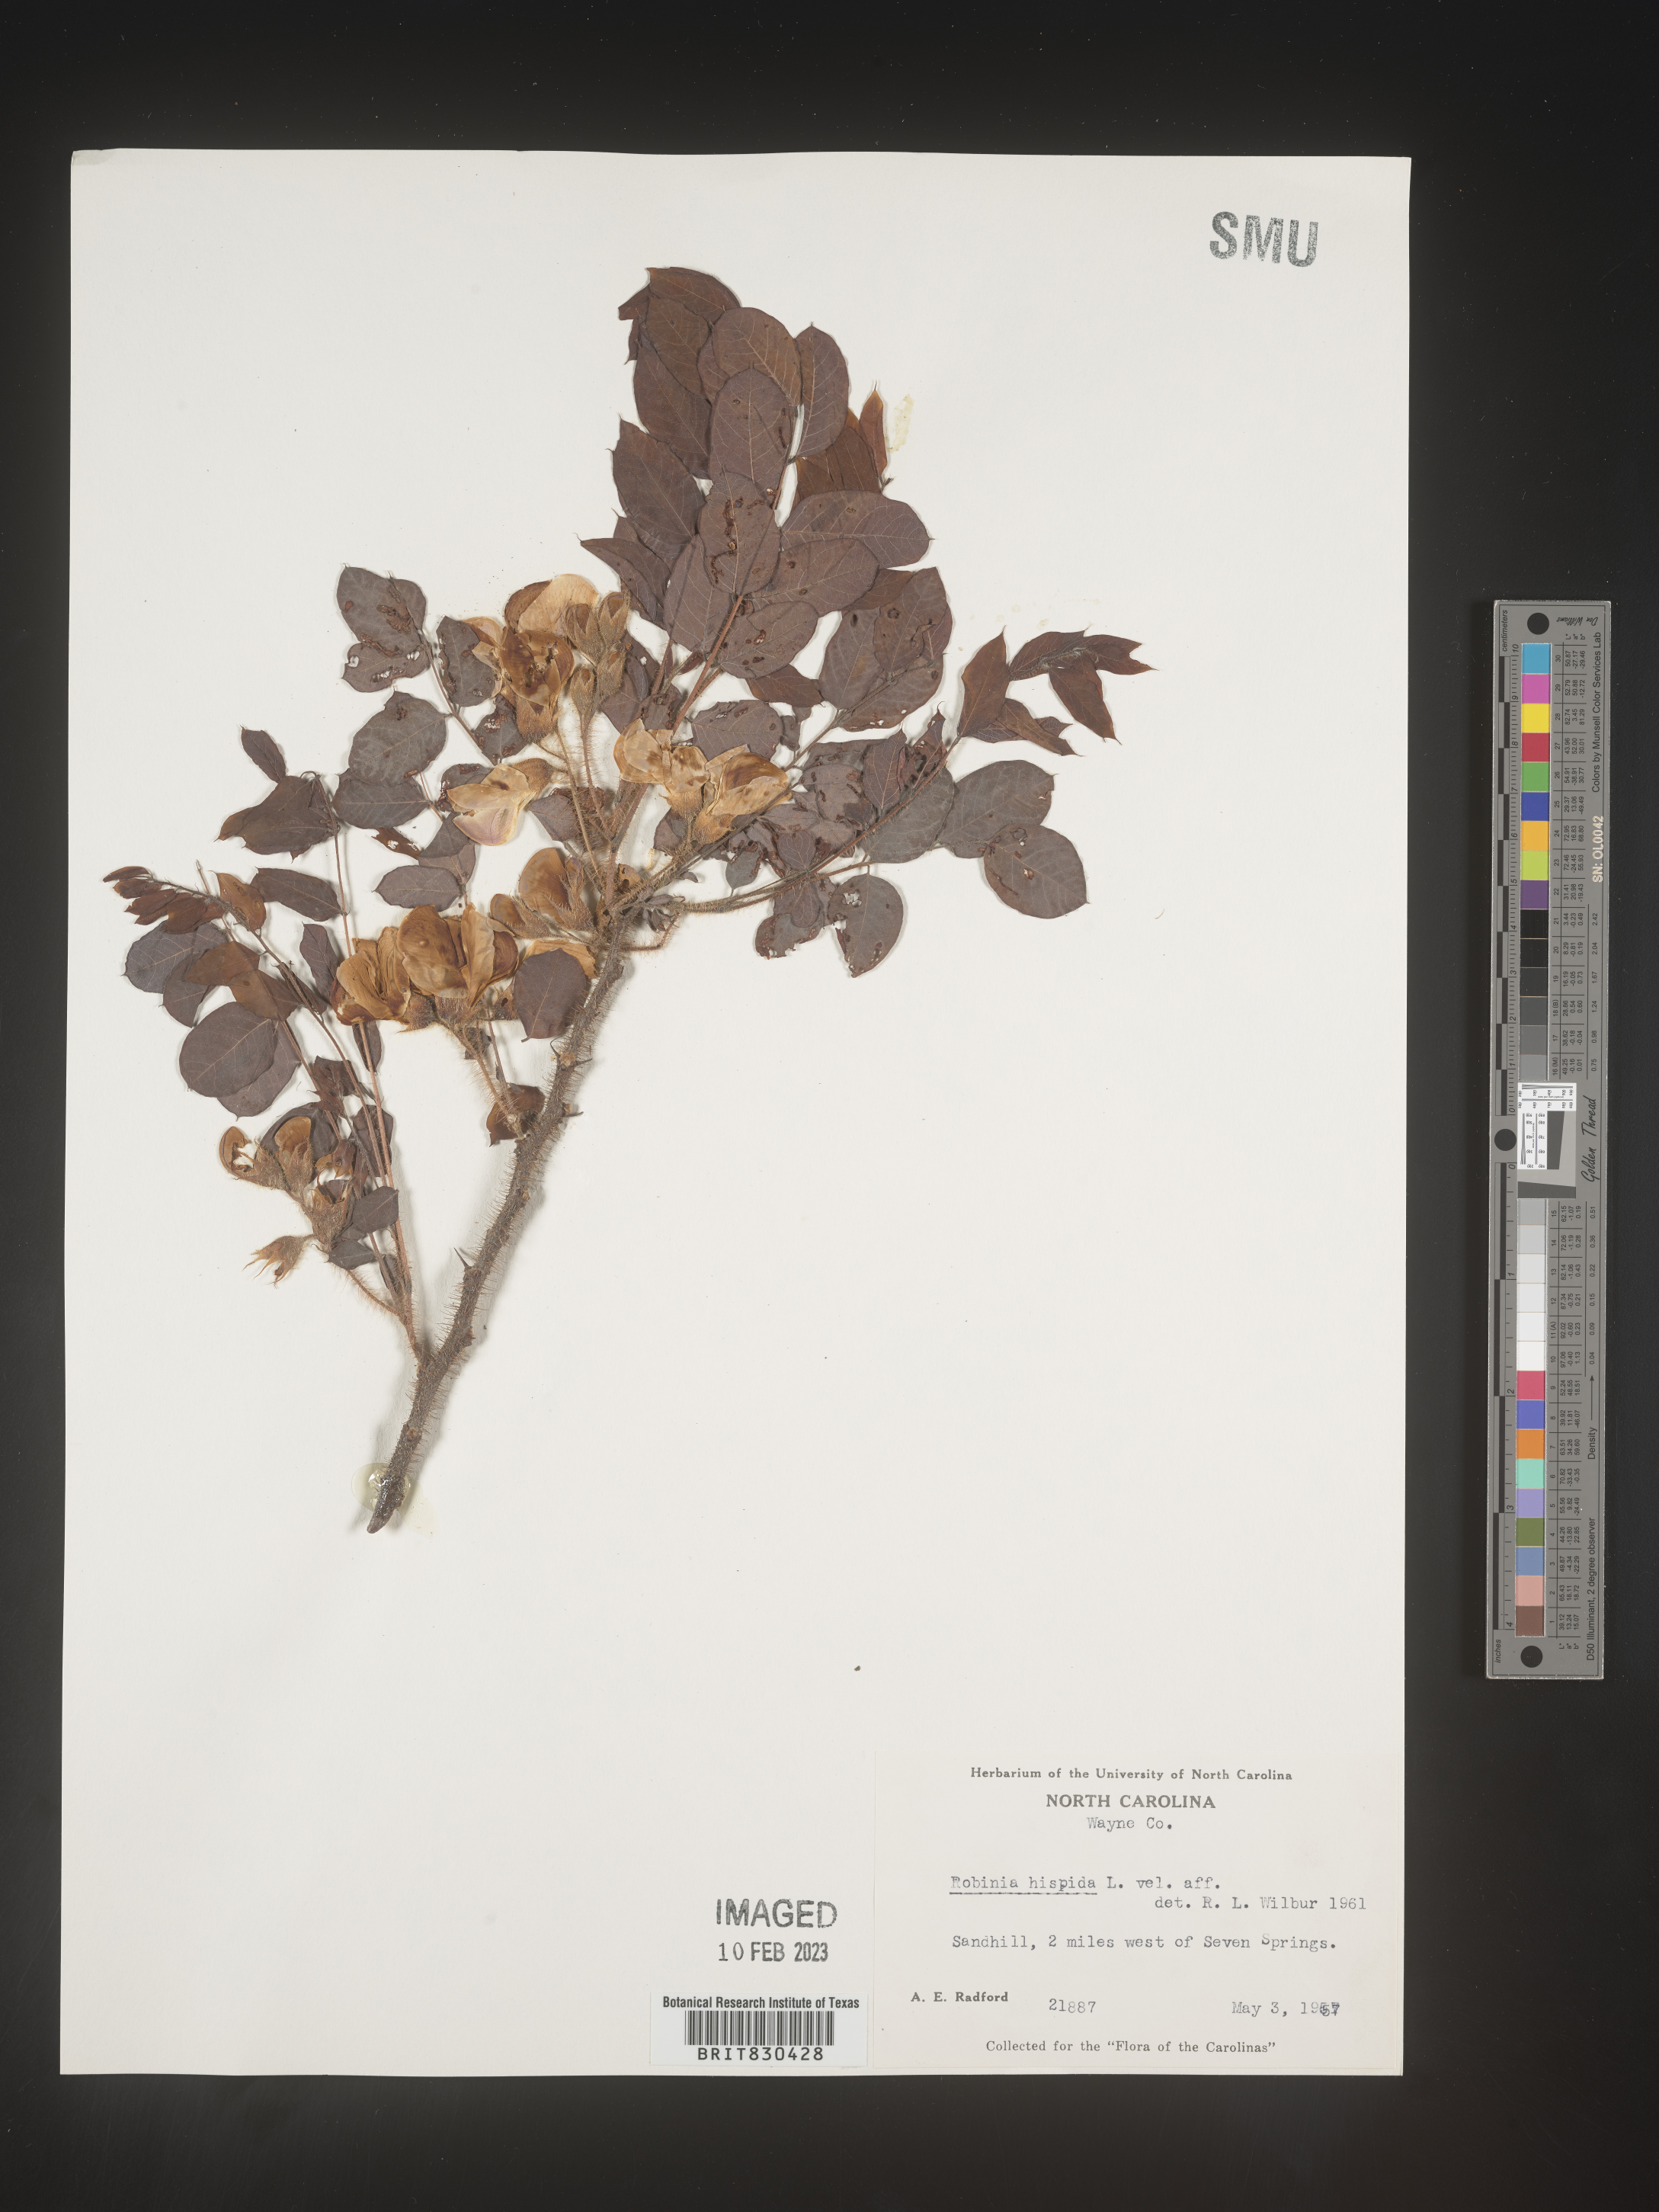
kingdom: Plantae
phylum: Tracheophyta
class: Magnoliopsida
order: Fabales
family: Fabaceae
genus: Robinia
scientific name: Robinia hispida
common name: Bristly locust
